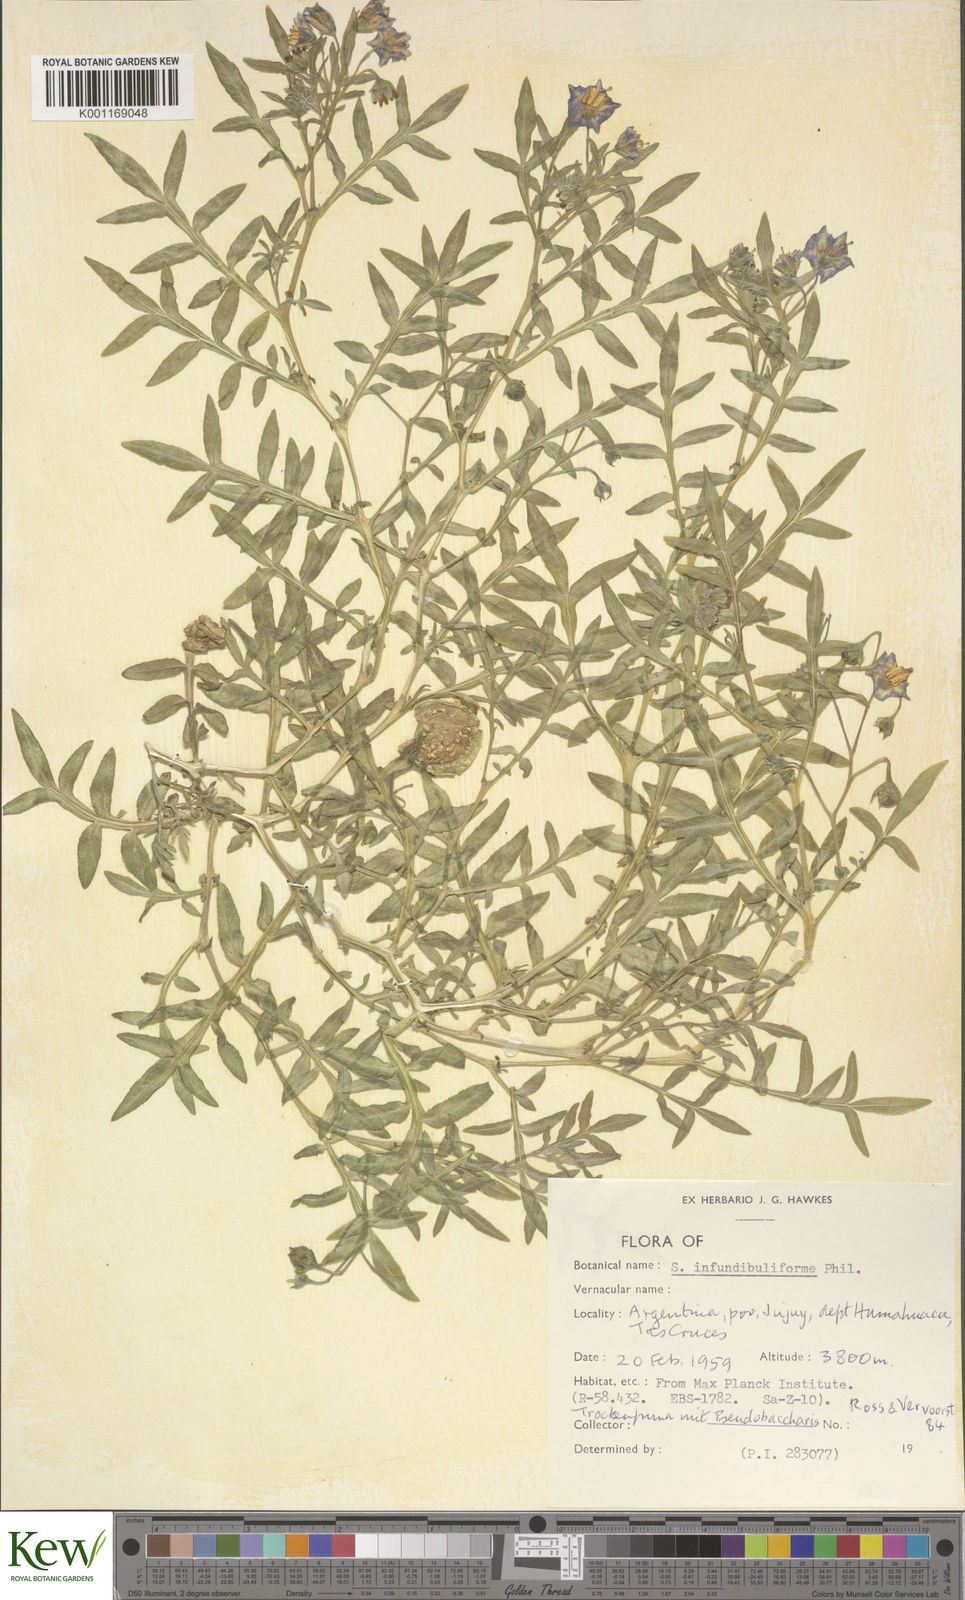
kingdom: Plantae
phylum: Tracheophyta
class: Magnoliopsida
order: Solanales
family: Solanaceae
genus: Solanum
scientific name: Solanum infundibuliforme
